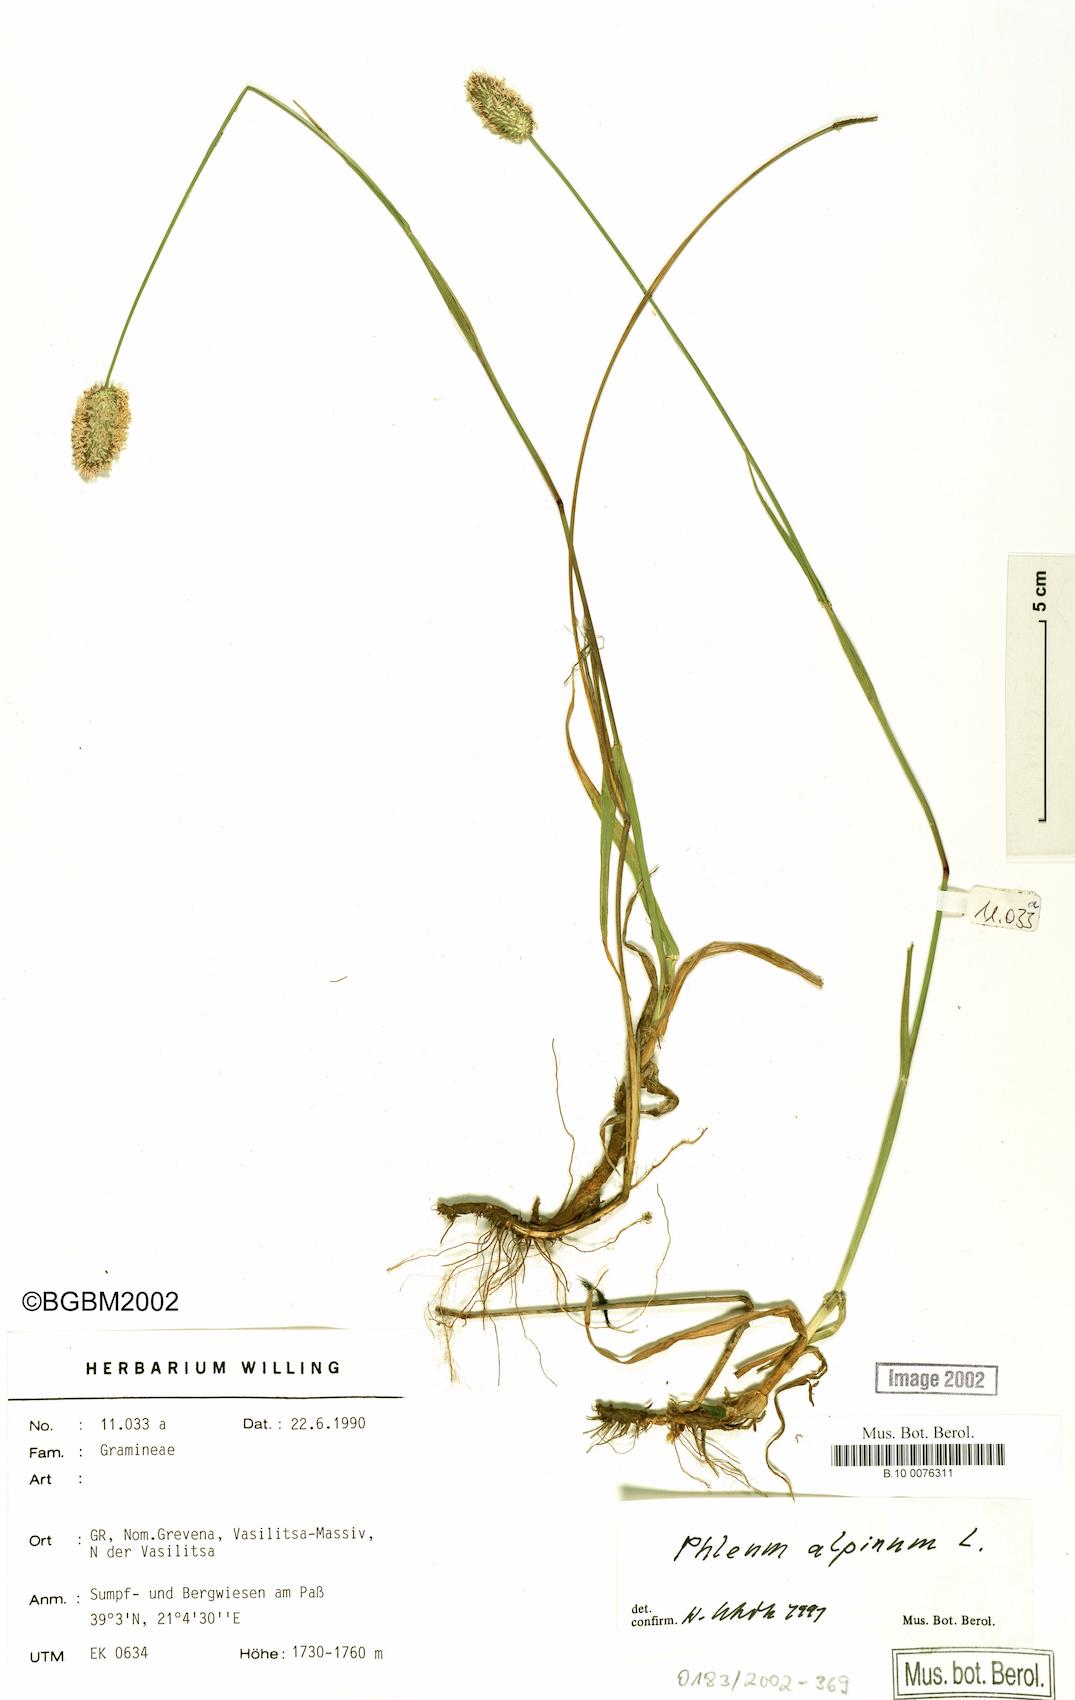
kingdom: Plantae
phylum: Tracheophyta
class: Liliopsida
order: Poales
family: Poaceae
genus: Phleum
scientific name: Phleum alpinum
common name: Alpine cat's-tail
